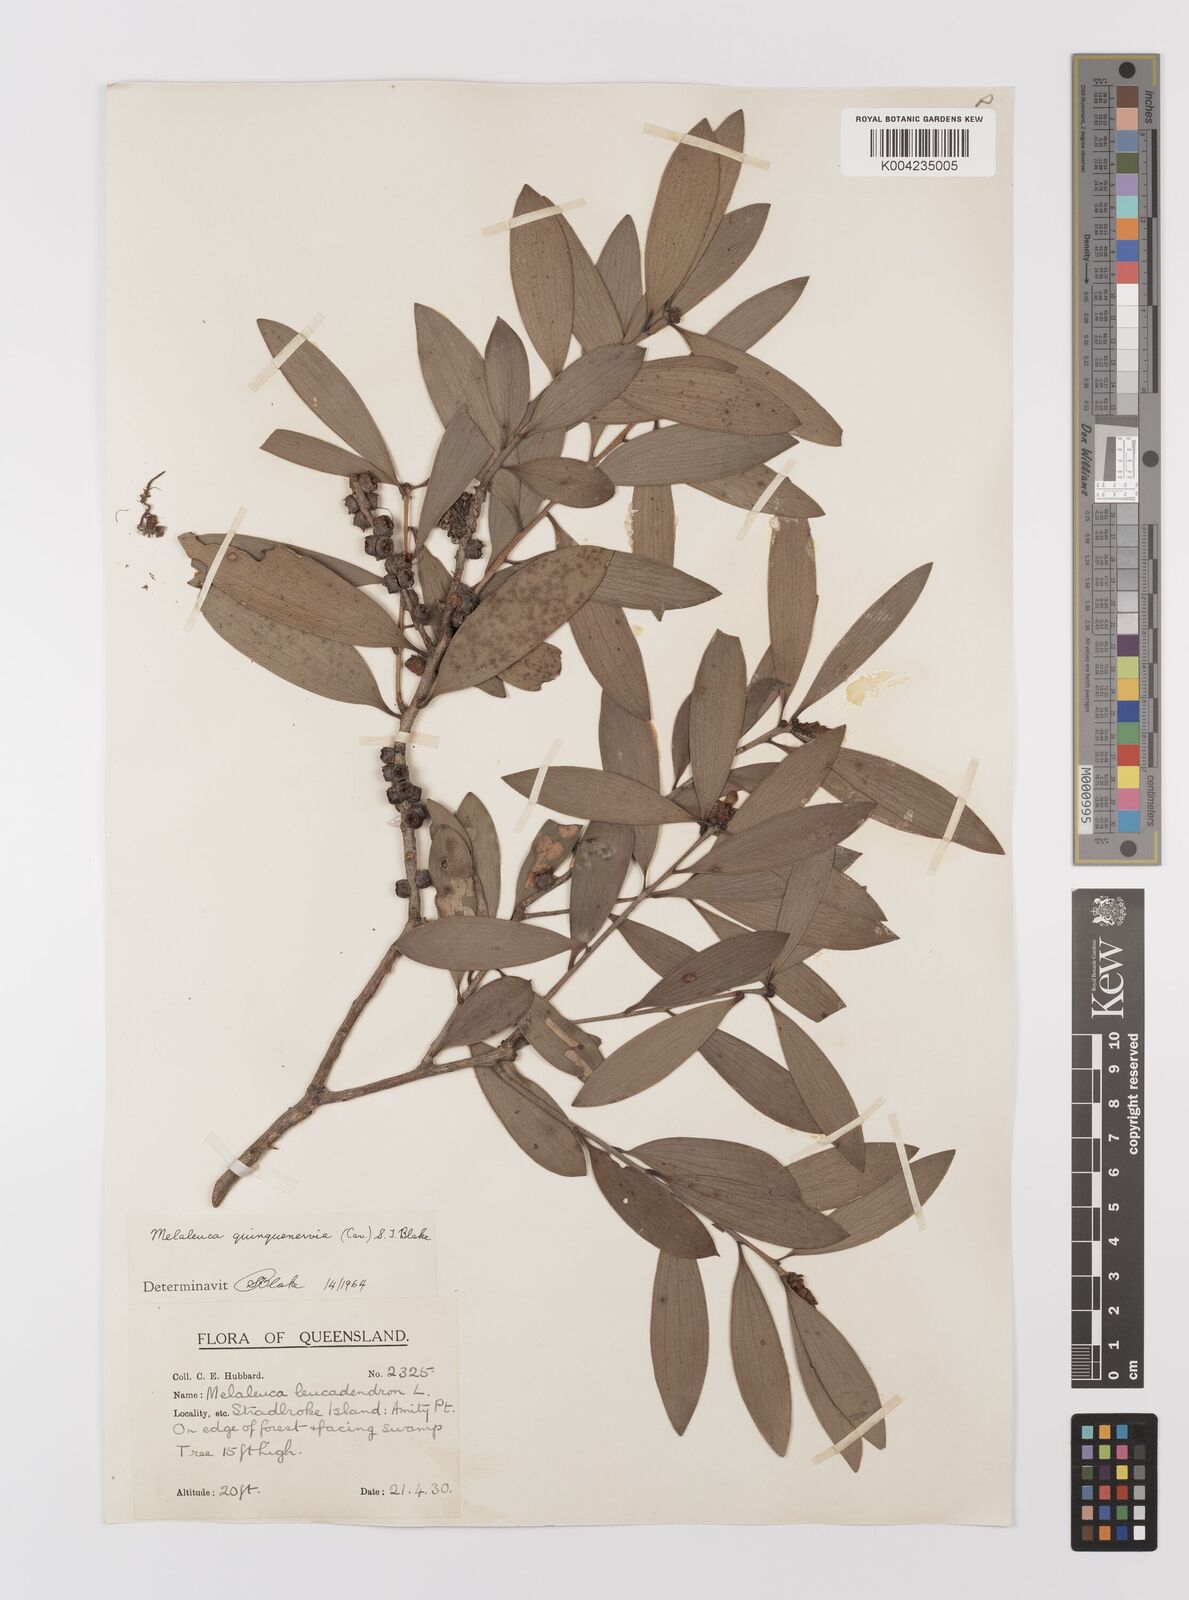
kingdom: Plantae
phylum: Tracheophyta
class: Magnoliopsida
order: Myrtales
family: Myrtaceae
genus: Melaleuca
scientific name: Melaleuca quinquenervia
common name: Punktree
